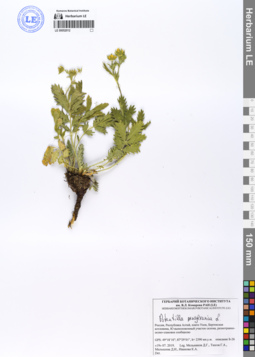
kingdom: Plantae
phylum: Tracheophyta
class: Magnoliopsida
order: Rosales
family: Rosaceae
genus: Potentilla
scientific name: Potentilla pensylvanica
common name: Pennsylvania cinquefoil
